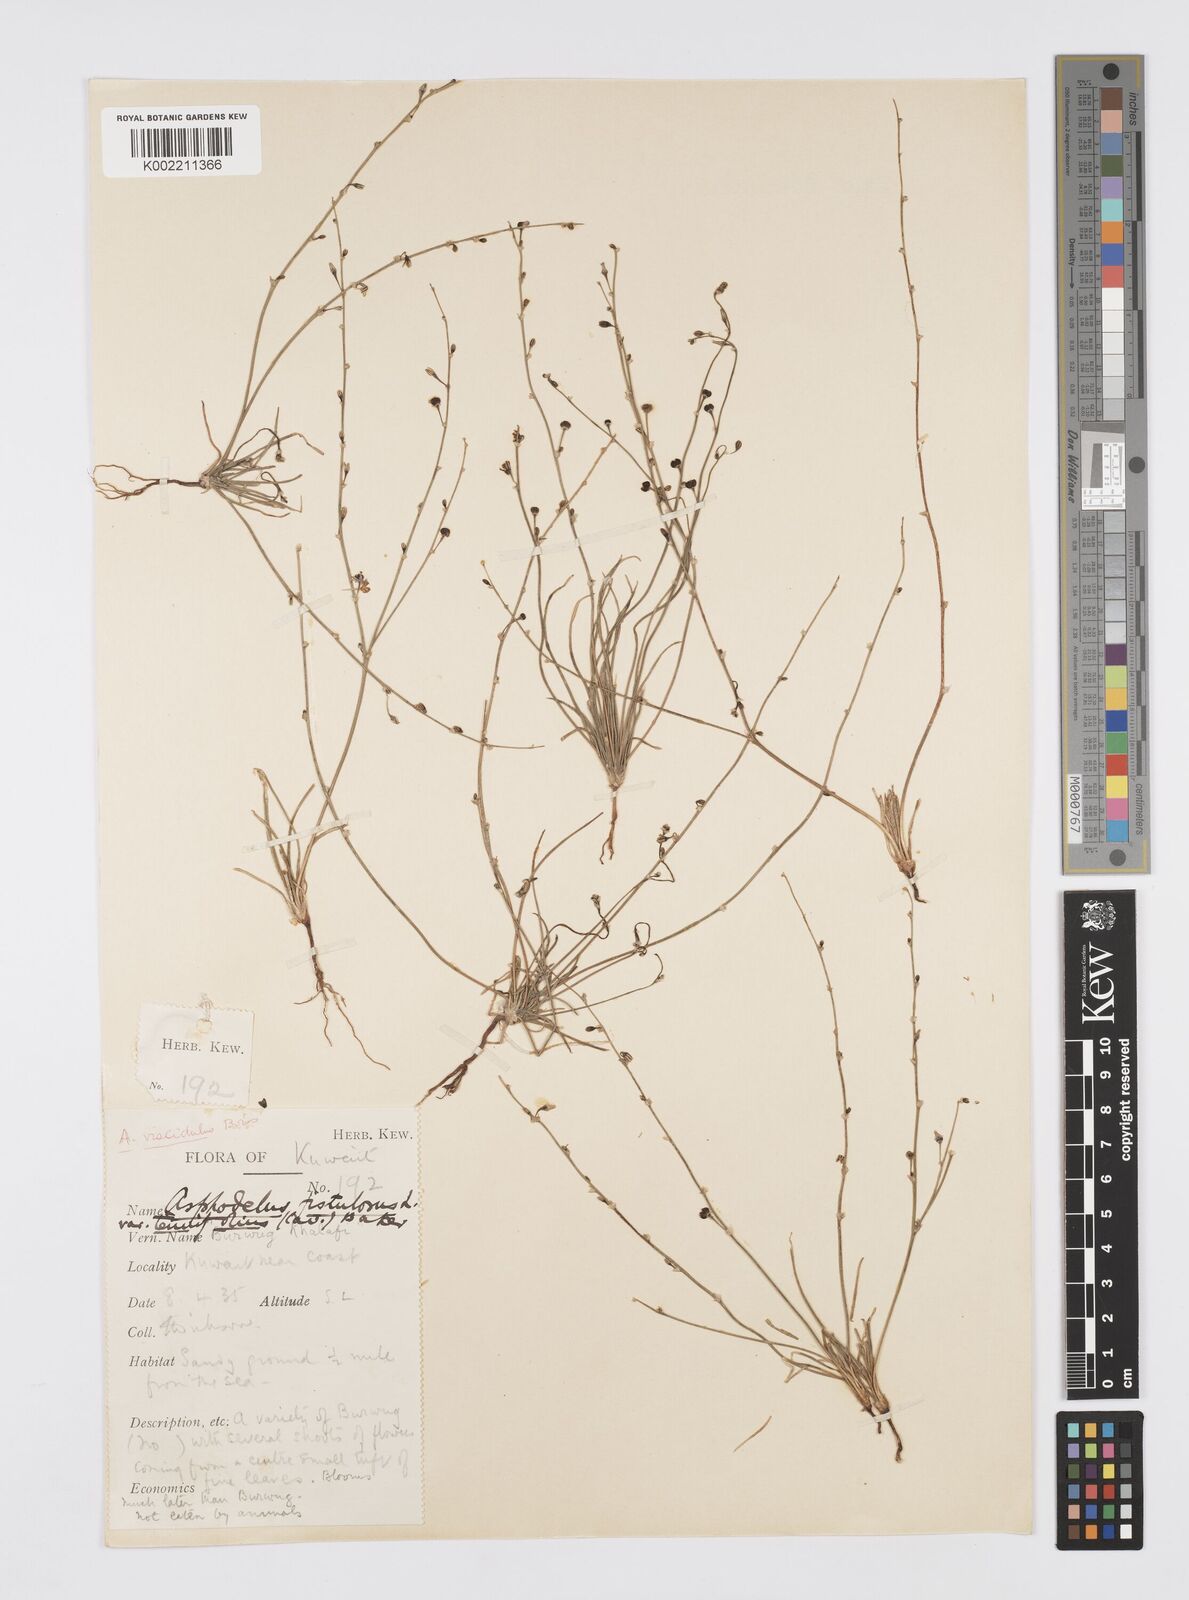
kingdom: Plantae
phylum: Tracheophyta
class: Liliopsida
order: Asparagales
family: Asphodelaceae
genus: Asphodelus
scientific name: Asphodelus viscidulus
